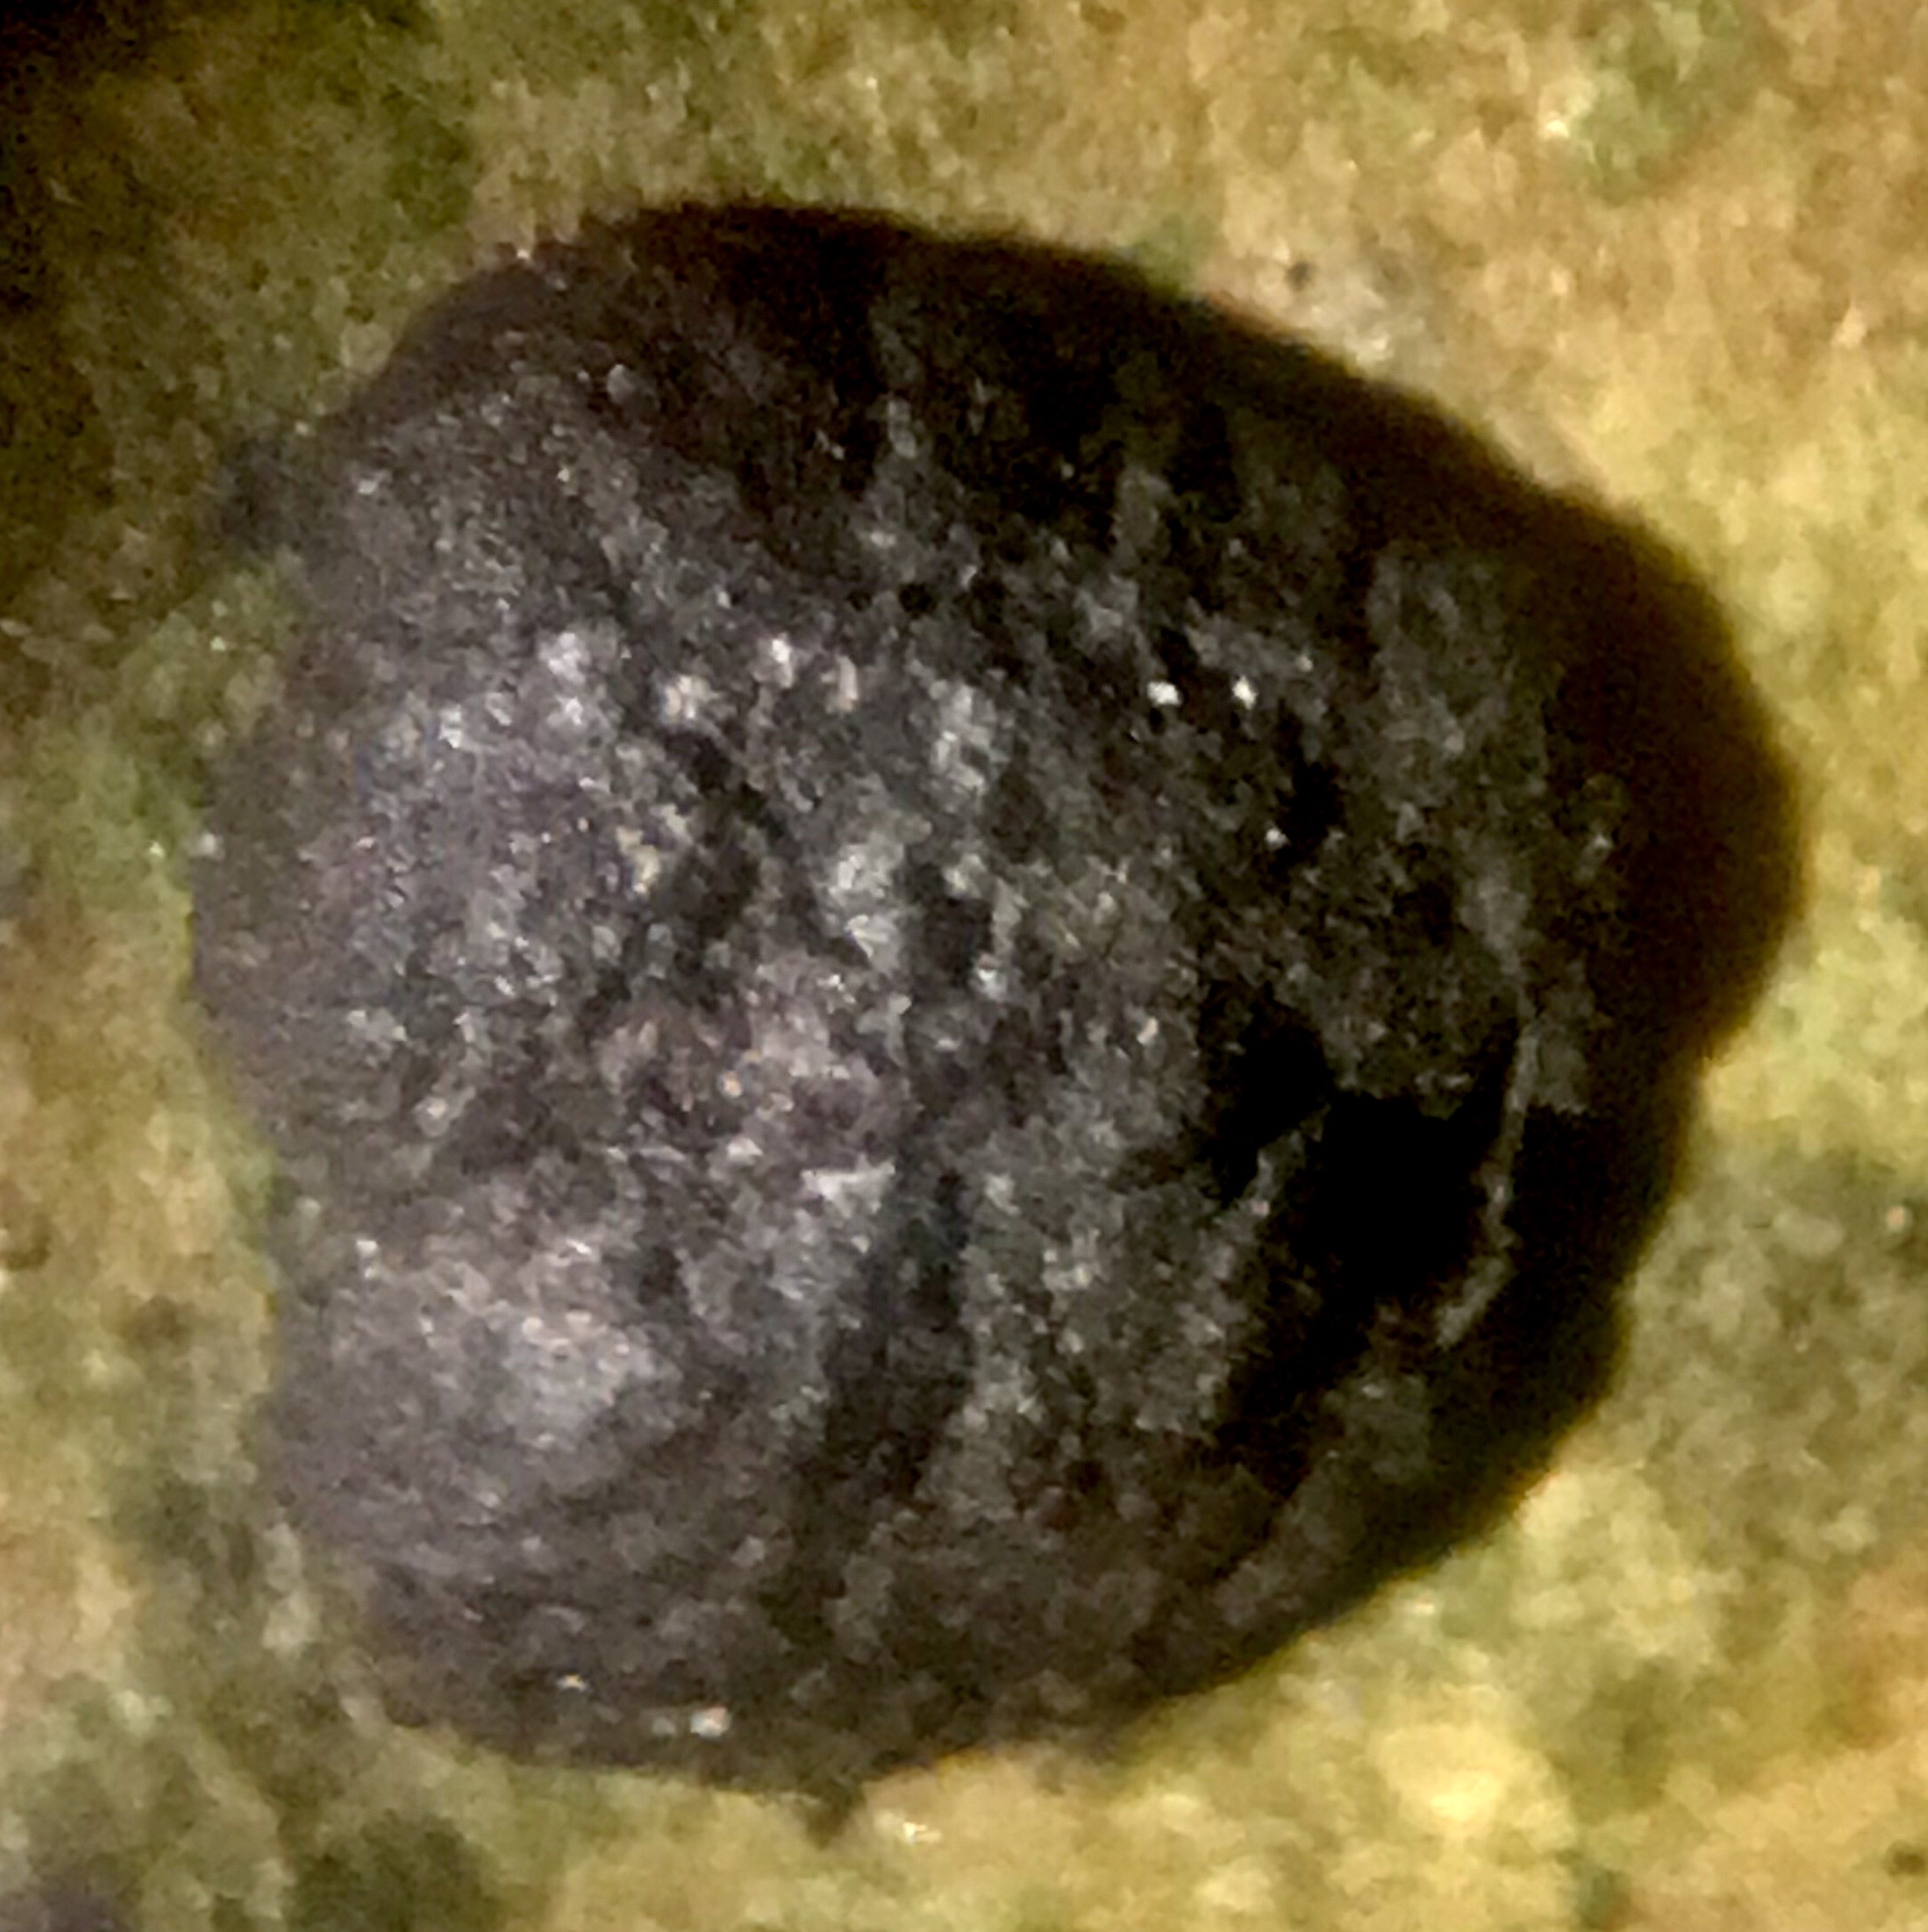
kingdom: Fungi
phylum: Ascomycota
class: Sordariomycetes
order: Xylariales
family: Hypoxylaceae
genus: Hypoxylon
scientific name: Hypoxylon fuscum
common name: kegleformet kulbær
